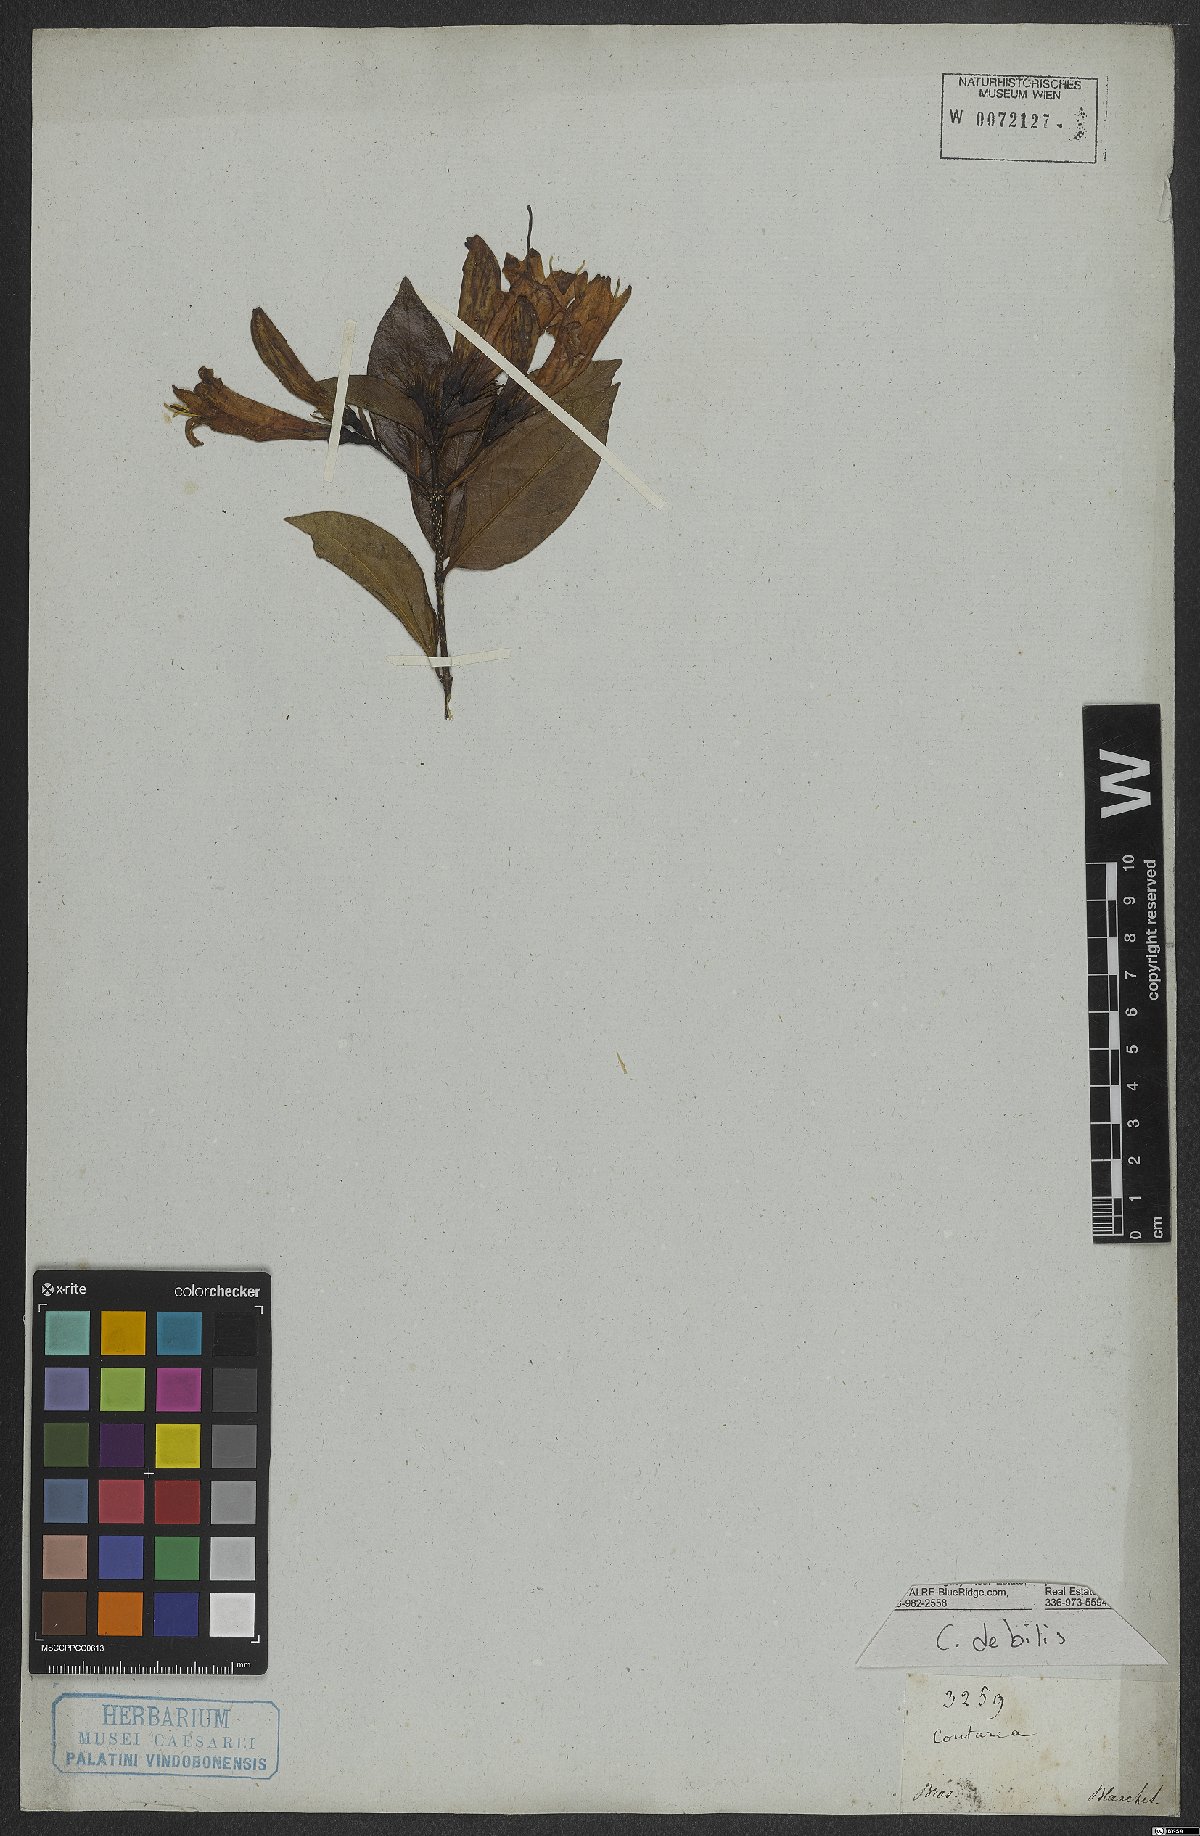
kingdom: Plantae
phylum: Tracheophyta
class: Magnoliopsida
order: Gentianales
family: Rubiaceae
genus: Coutarea
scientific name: Coutarea
